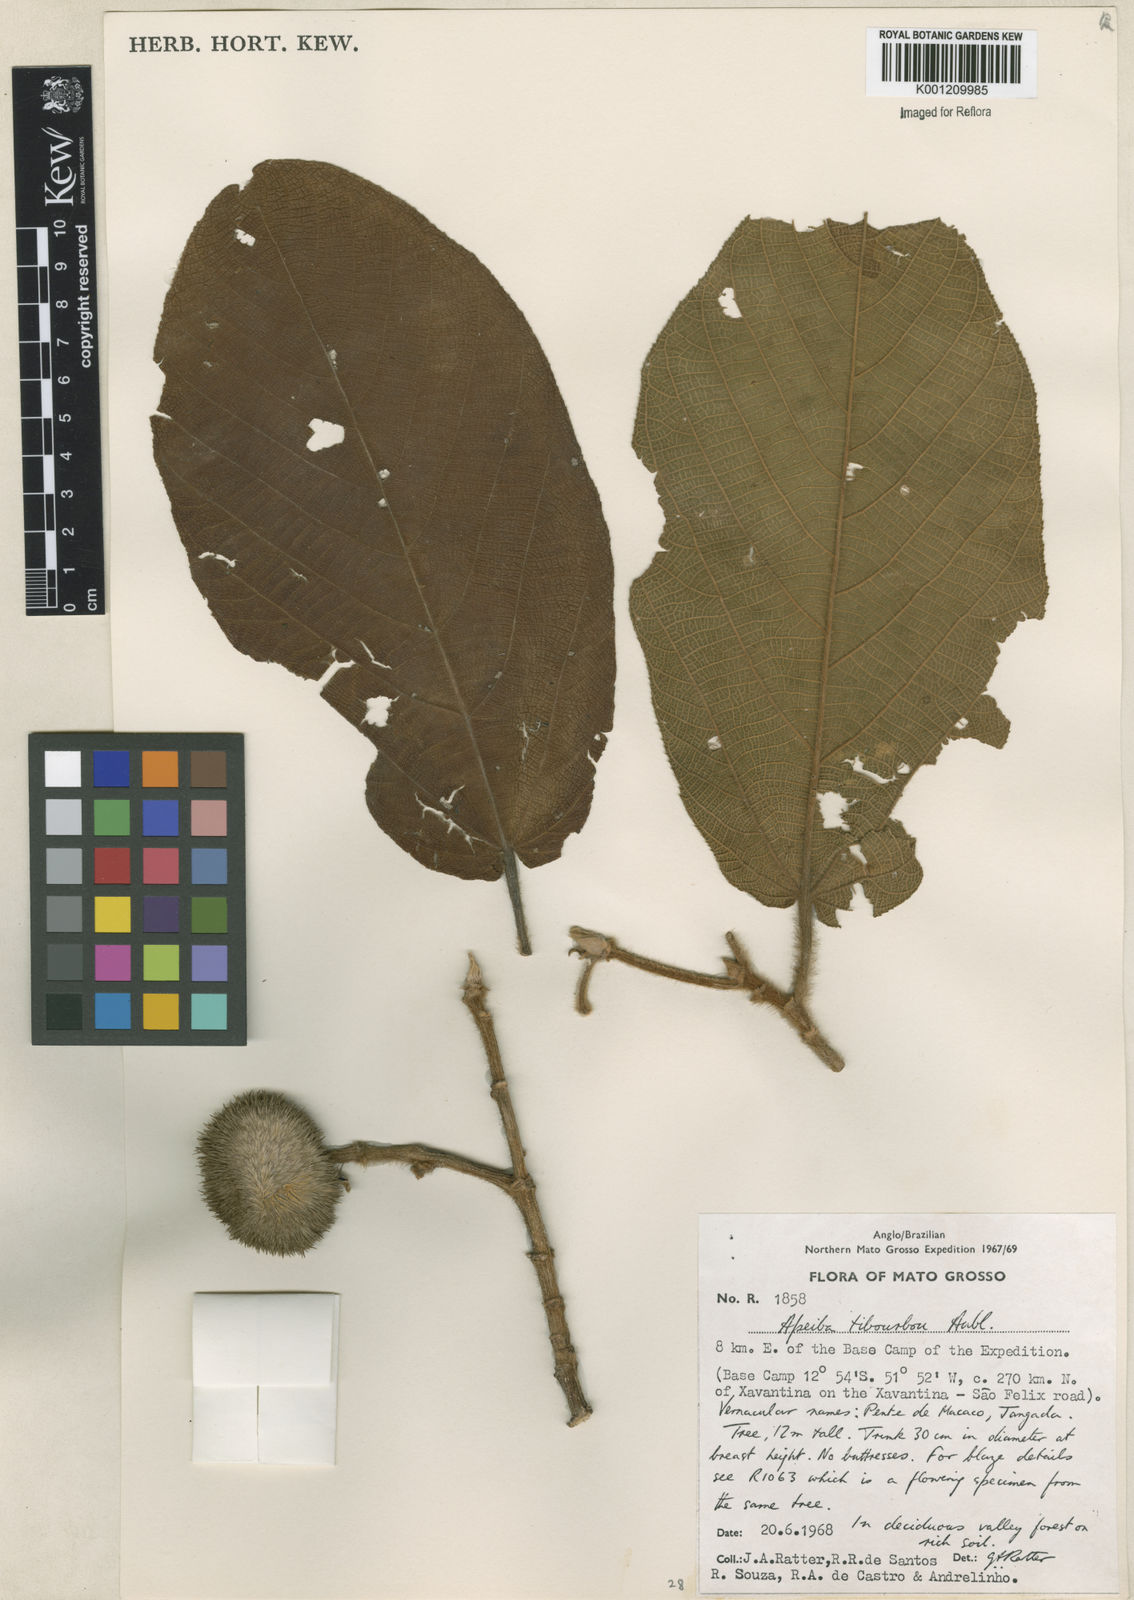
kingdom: Plantae
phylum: Tracheophyta
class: Magnoliopsida
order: Malvales
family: Malvaceae
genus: Apeiba
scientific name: Apeiba tibourbou
